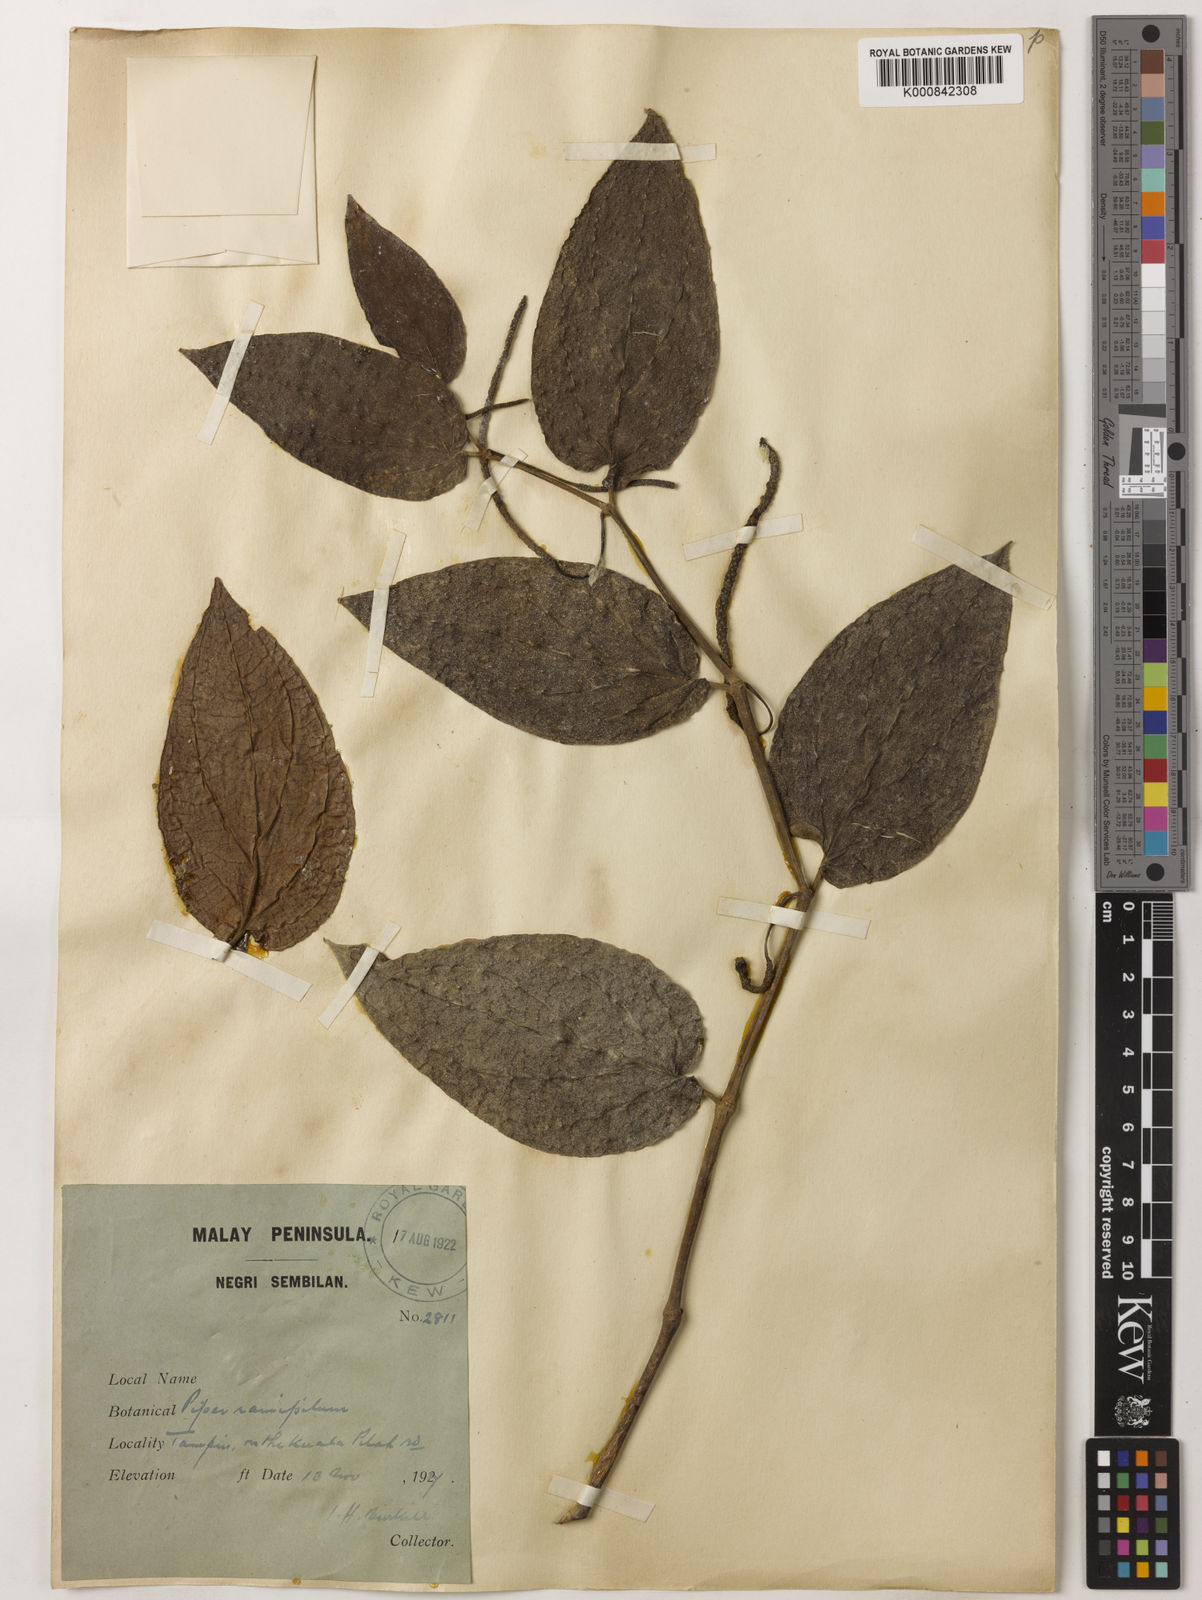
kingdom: Plantae
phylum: Tracheophyta
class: Magnoliopsida
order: Piperales
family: Piperaceae
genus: Piper
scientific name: Piper frustratum
